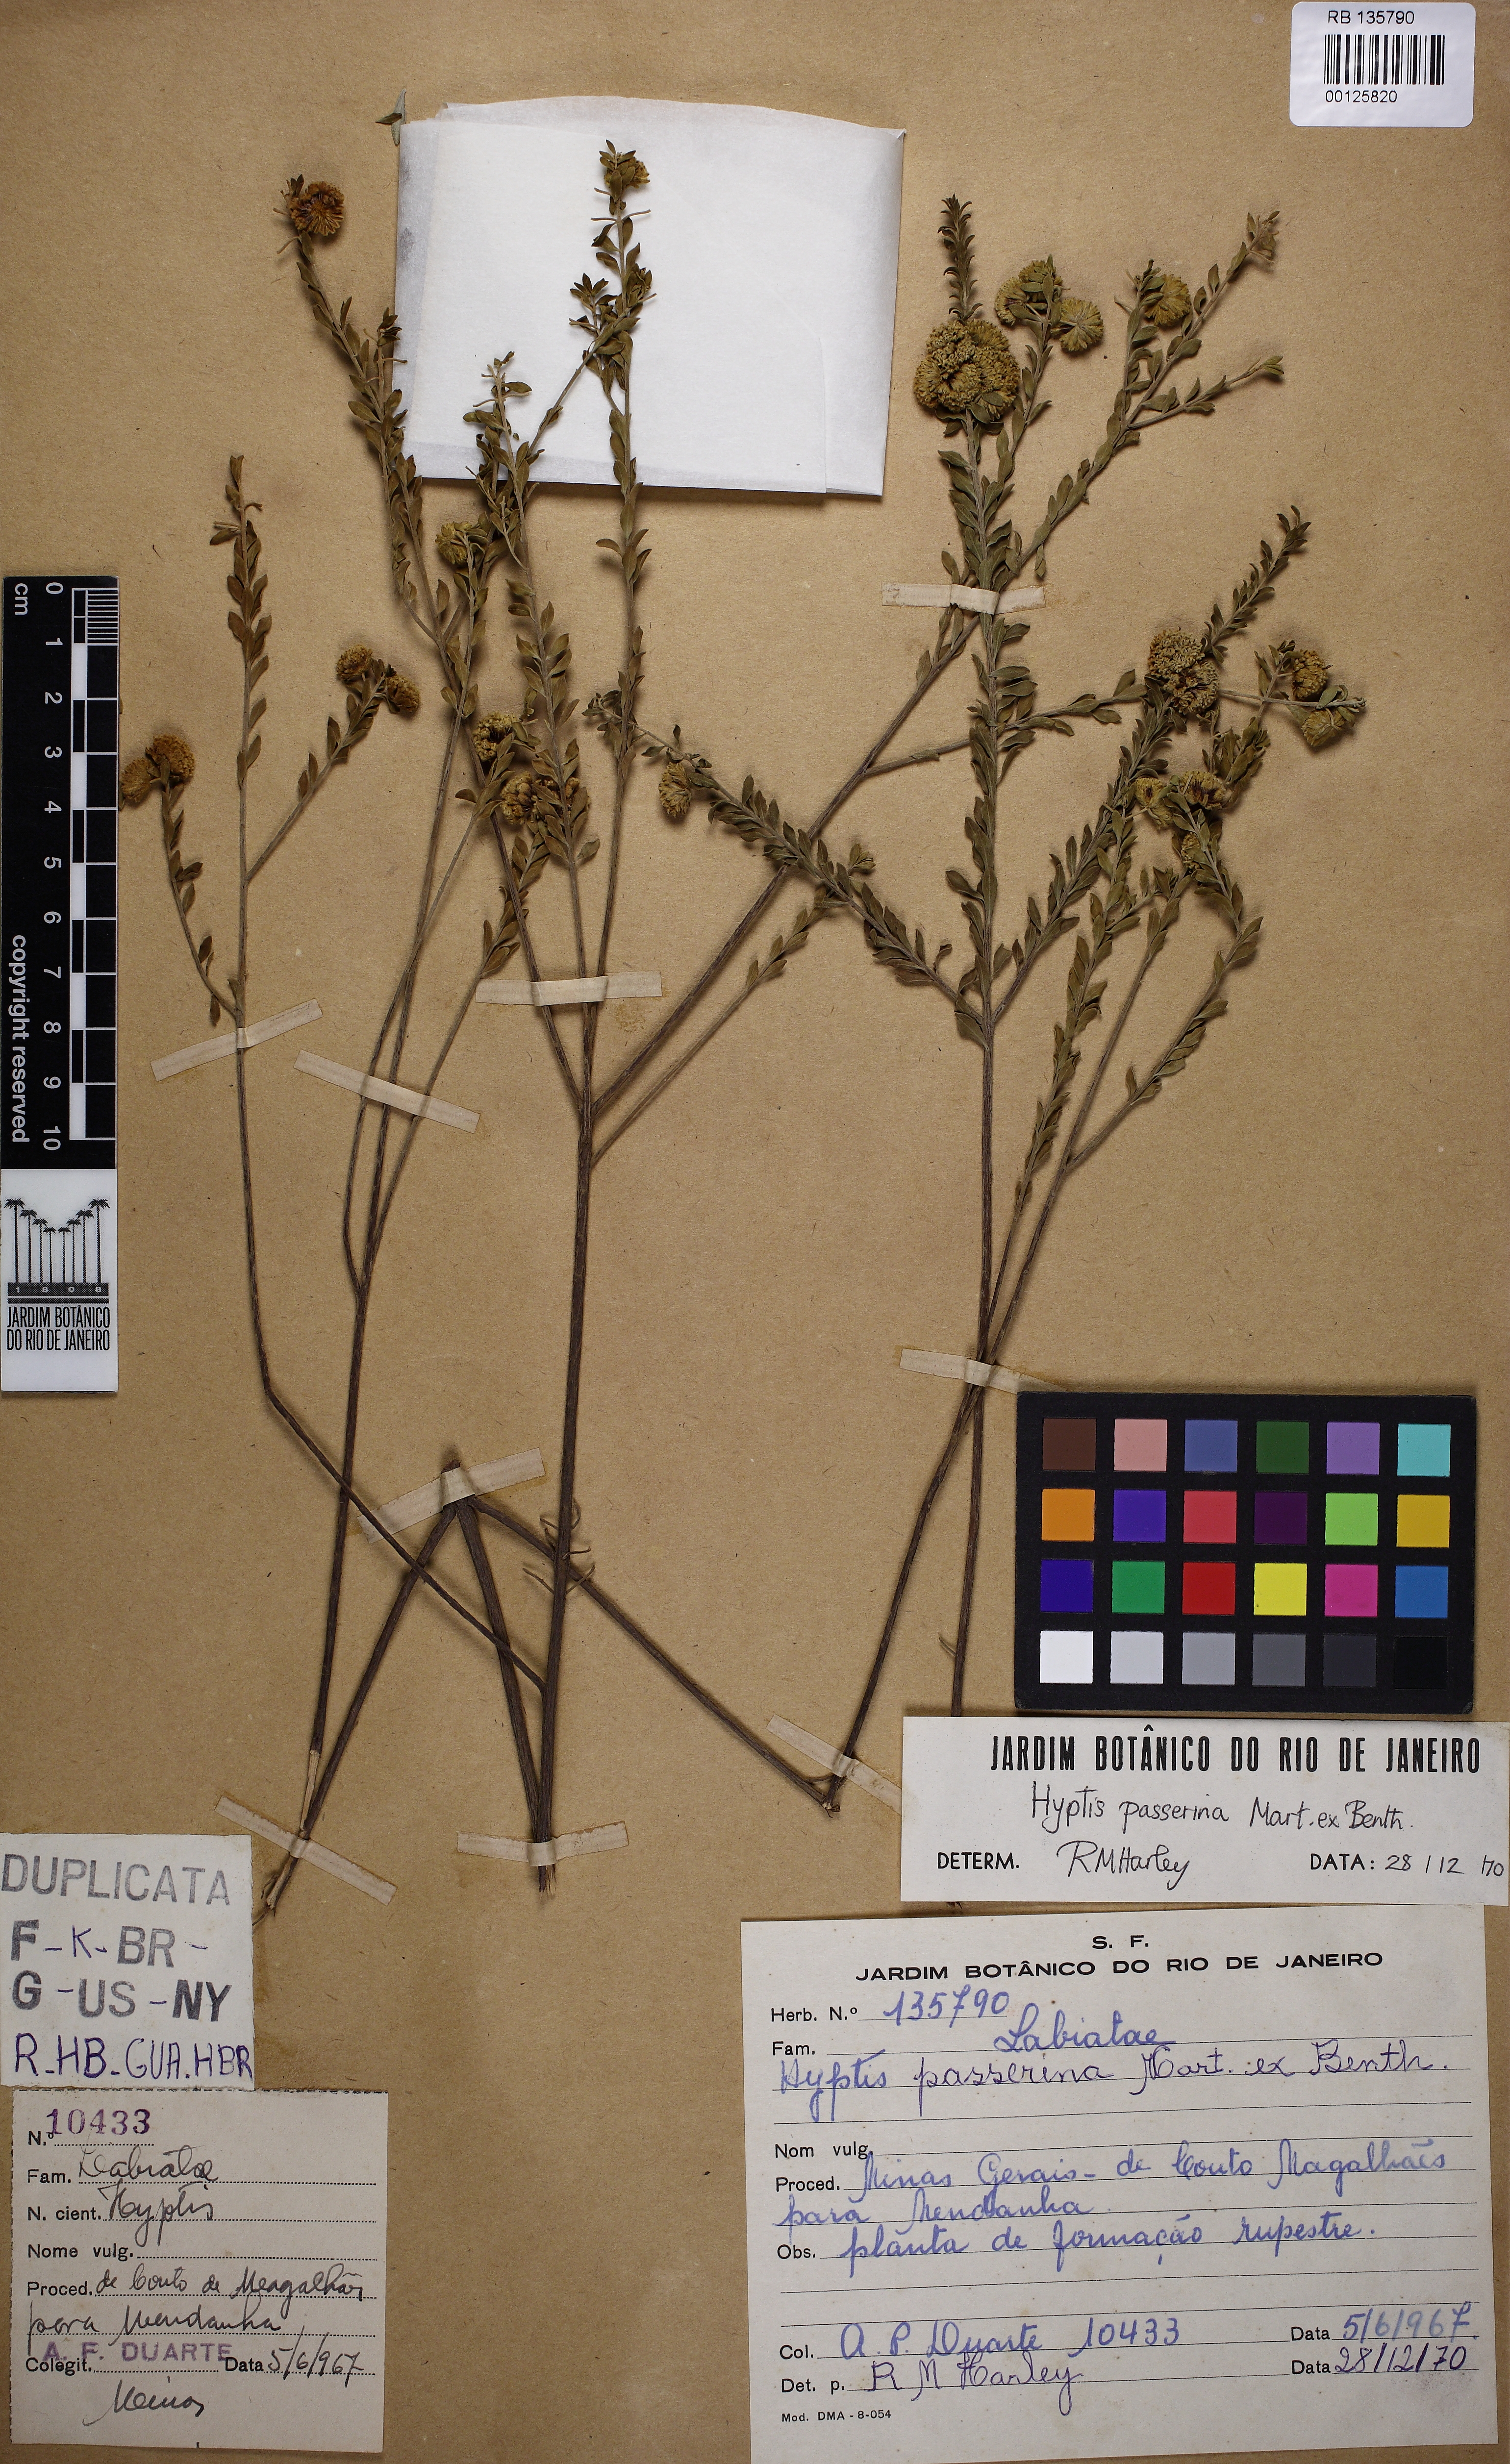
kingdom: Plantae
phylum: Tracheophyta
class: Magnoliopsida
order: Lamiales
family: Lamiaceae
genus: Hyptis
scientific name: Hyptis passerina
